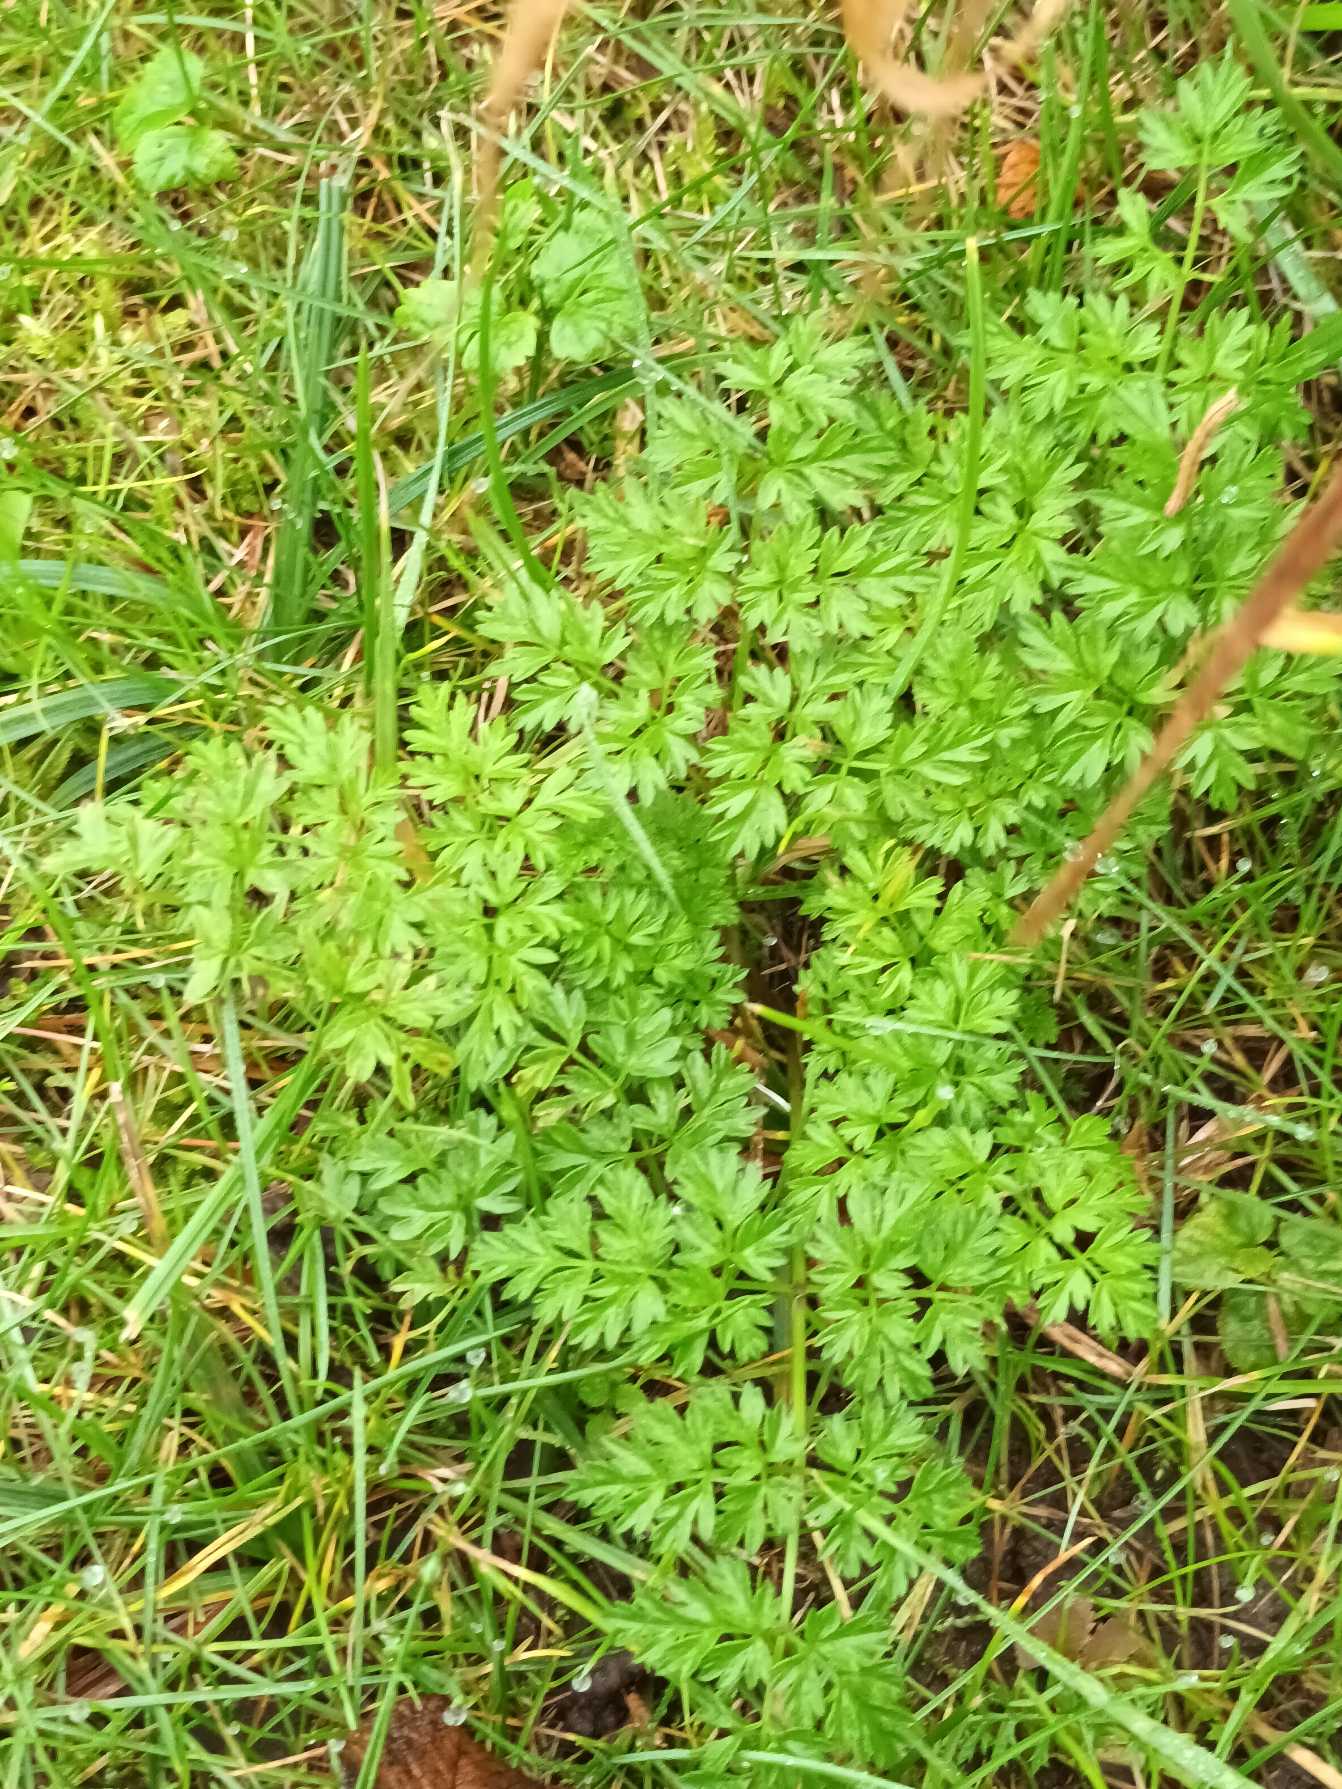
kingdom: Plantae
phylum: Tracheophyta
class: Magnoliopsida
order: Apiales
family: Apiaceae
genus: Anthriscus
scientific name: Anthriscus sylvestris
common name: Vild kørvel
